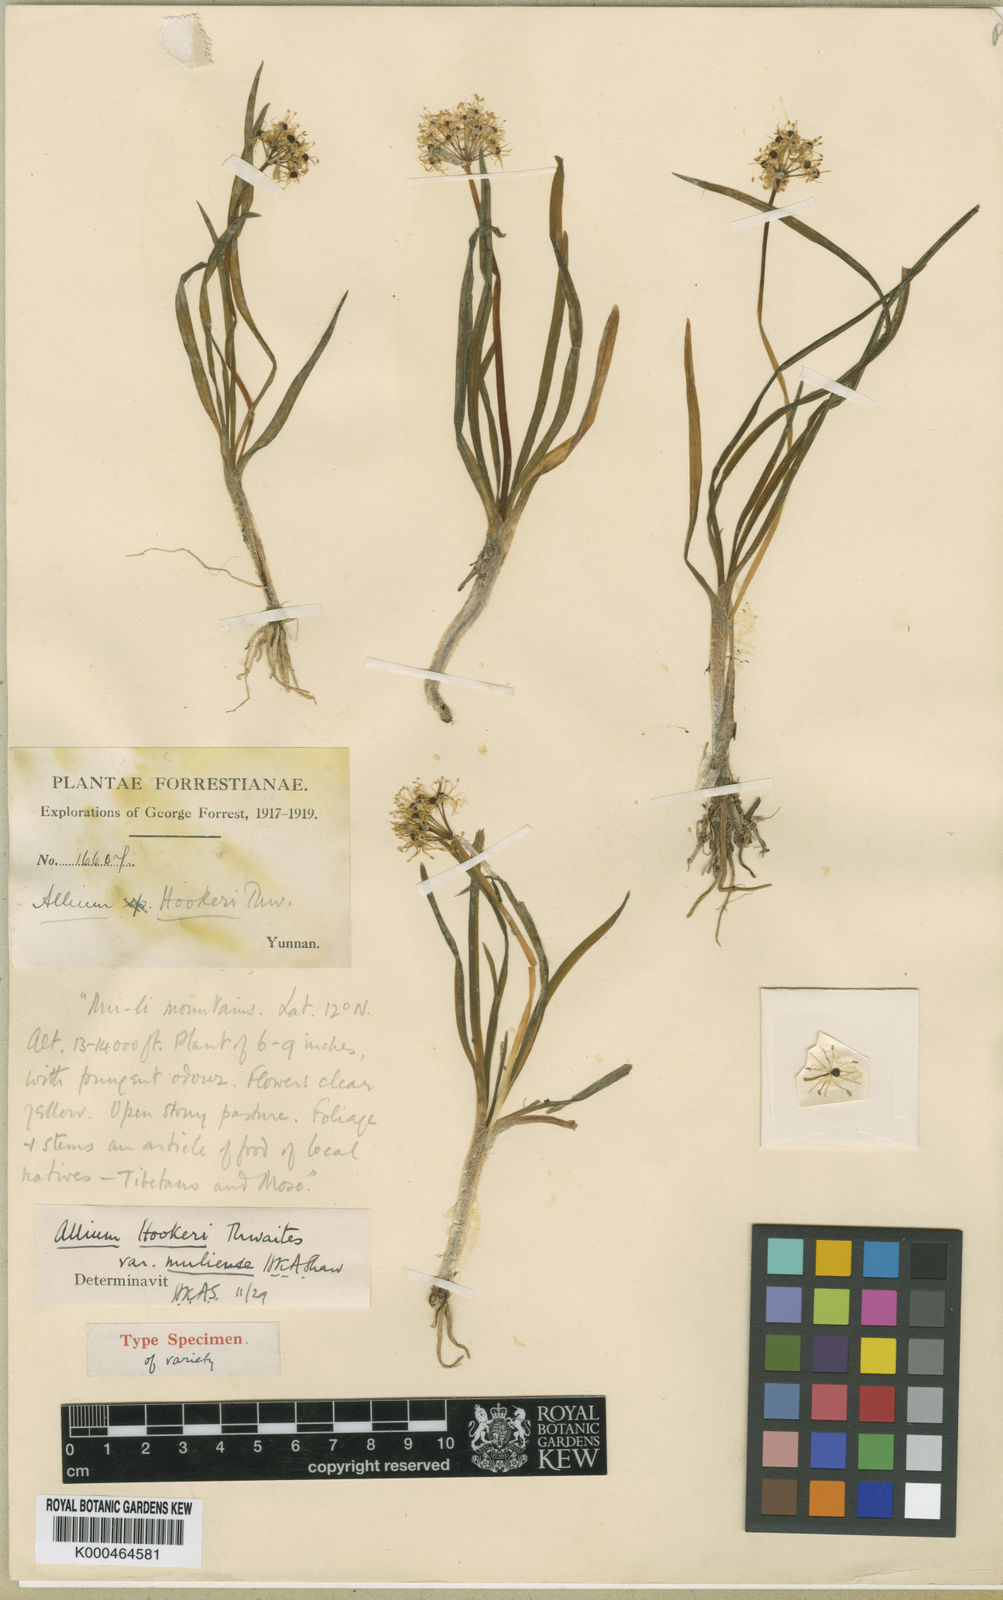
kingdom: Plantae
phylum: Tracheophyta
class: Liliopsida
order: Asparagales
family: Amaryllidaceae
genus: Allium
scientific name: Allium hookeri
